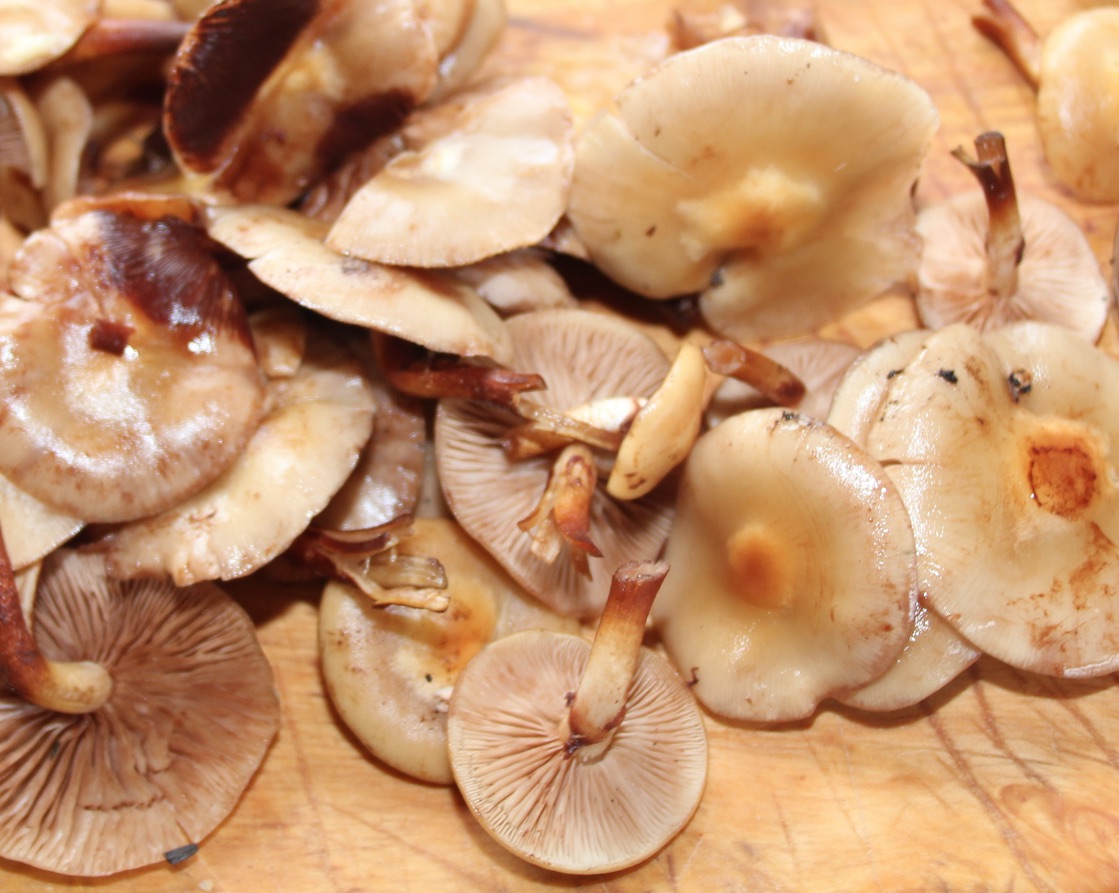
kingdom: Fungi
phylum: Basidiomycota
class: Agaricomycetes
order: Agaricales
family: Strophariaceae
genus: Kuehneromyces
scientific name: Kuehneromyces mutabilis
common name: foranderlig skælhat
